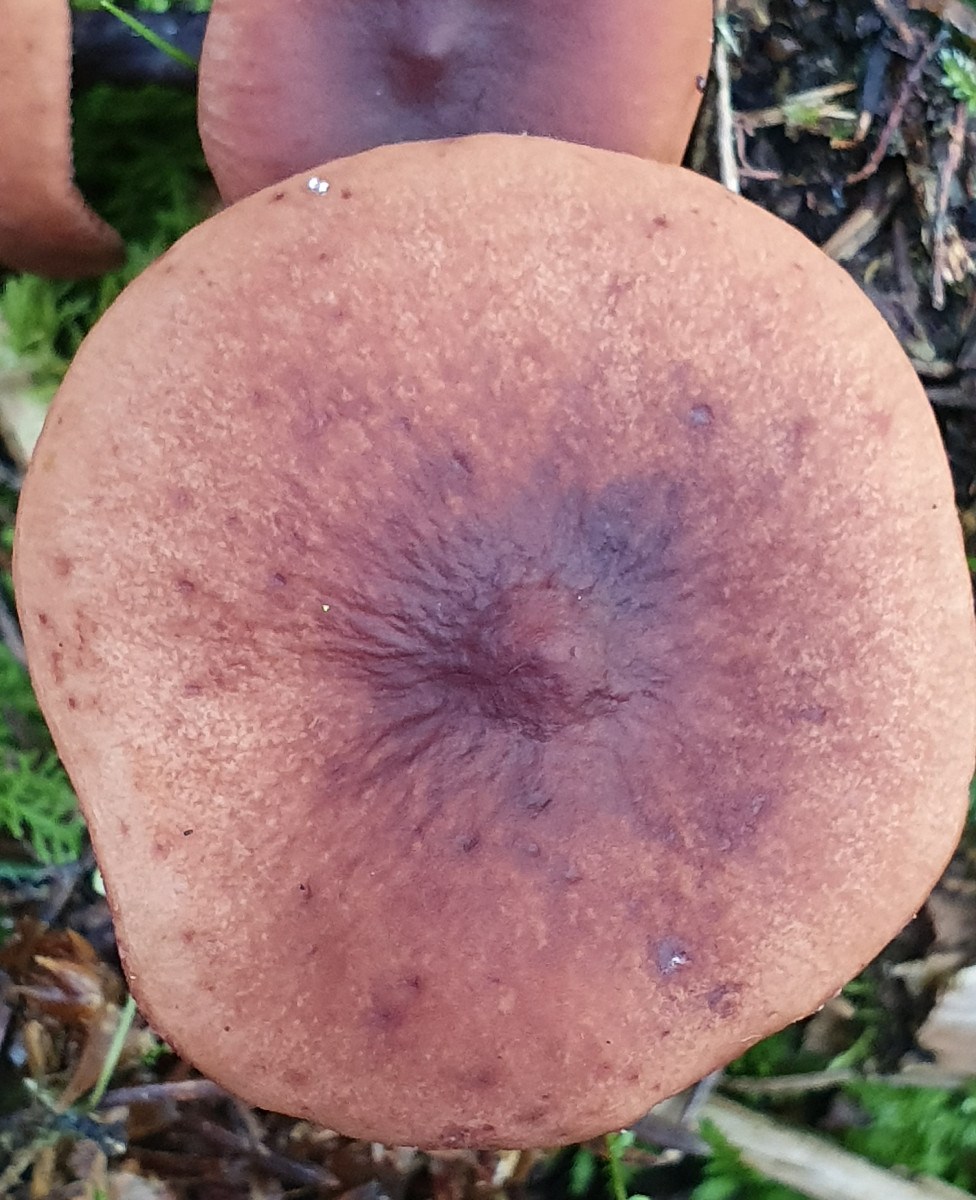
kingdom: Fungi
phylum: Basidiomycota
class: Agaricomycetes
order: Russulales
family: Russulaceae
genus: Lactarius
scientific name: Lactarius camphoratus
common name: kamfer-mælkehat
